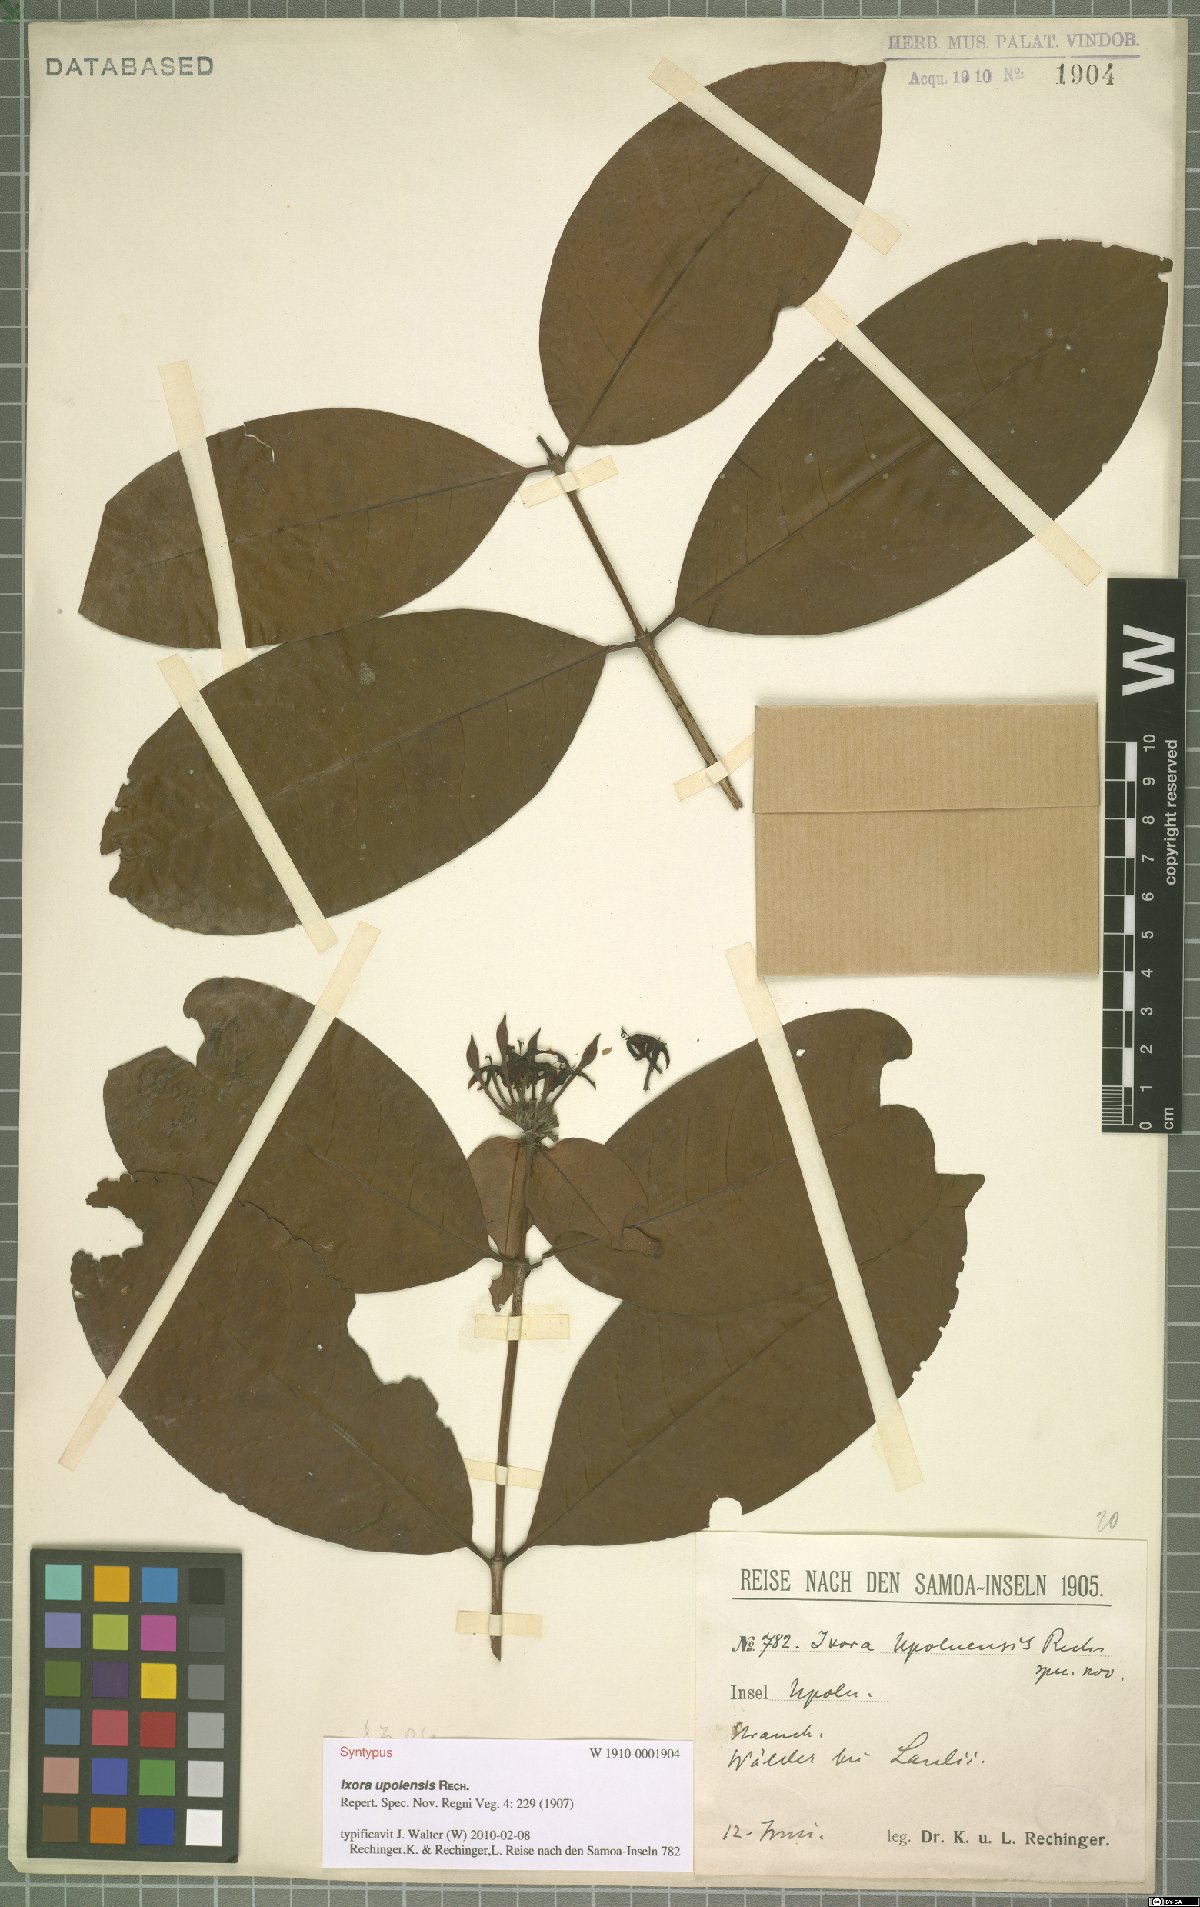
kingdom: Plantae
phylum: Tracheophyta
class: Magnoliopsida
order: Gentianales
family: Rubiaceae
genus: Ixora
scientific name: Ixora amplifolia
